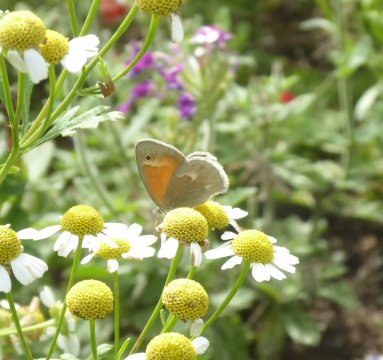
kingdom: Animalia
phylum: Arthropoda
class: Insecta
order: Lepidoptera
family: Nymphalidae
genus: Coenonympha
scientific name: Coenonympha tullia
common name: Large Heath
